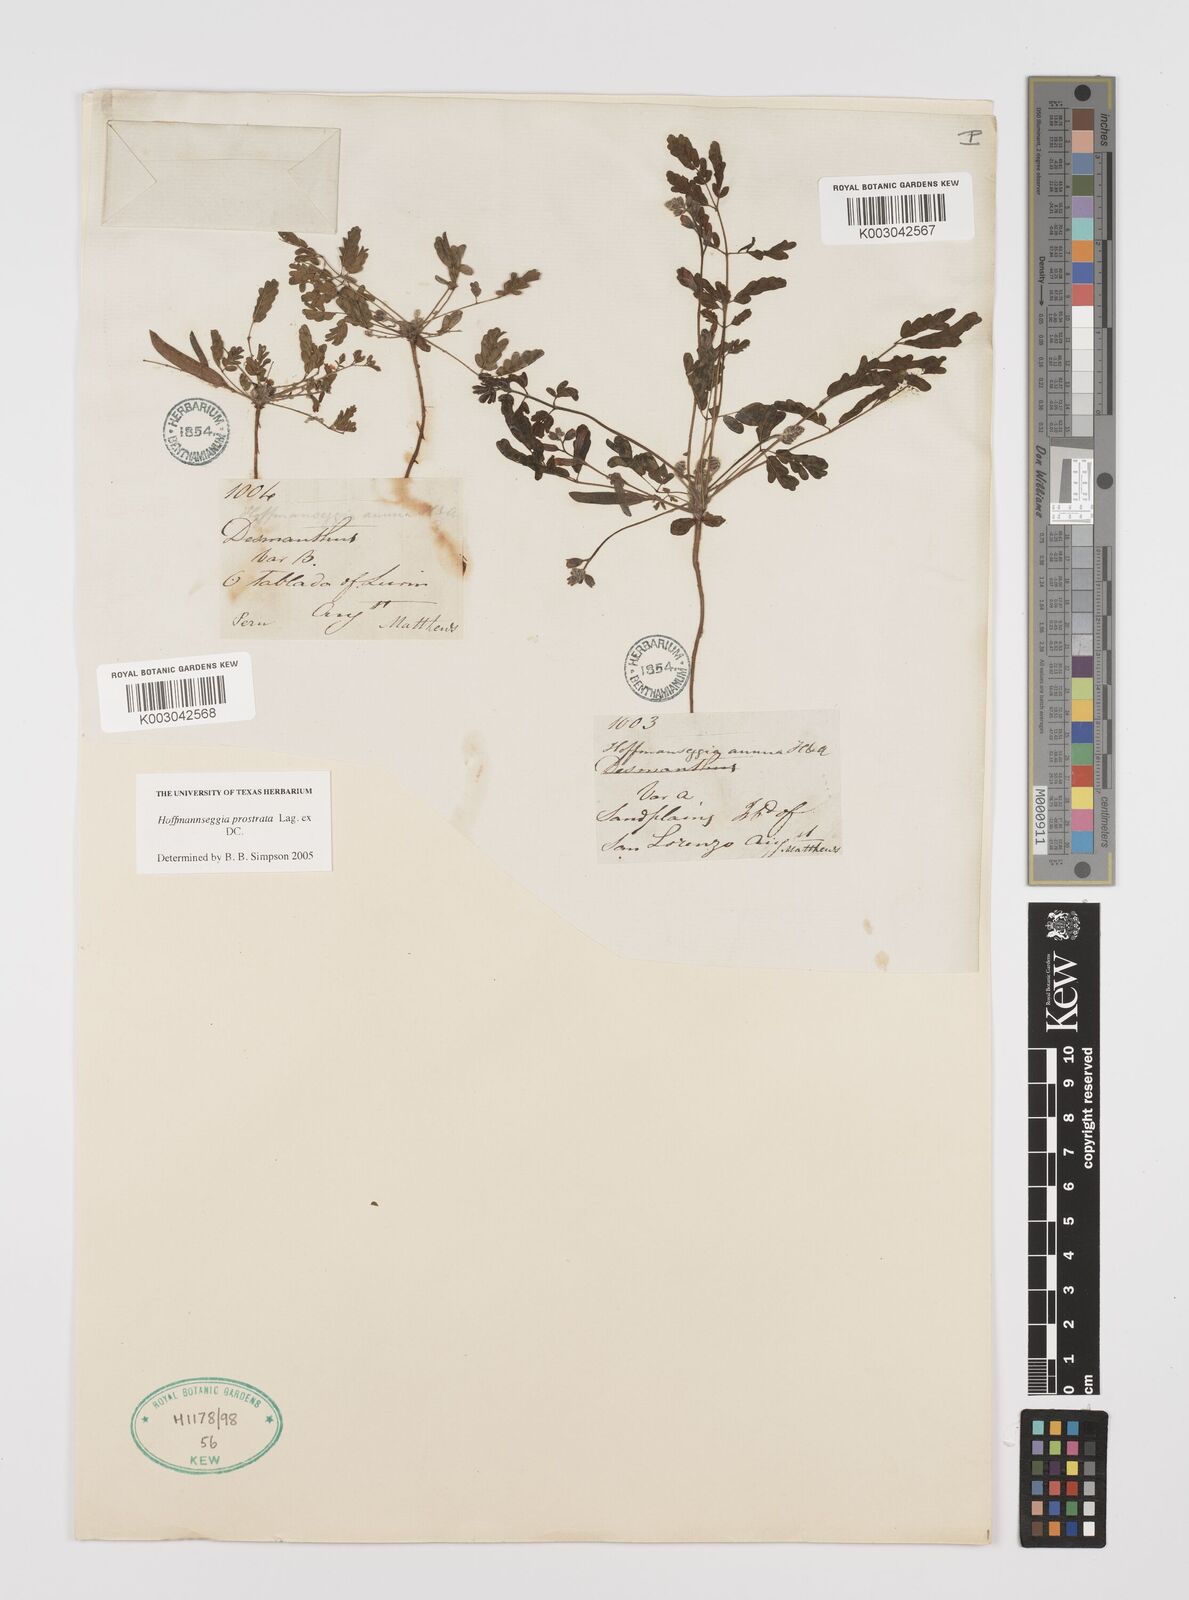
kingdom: Plantae
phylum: Tracheophyta
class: Magnoliopsida
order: Fabales
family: Fabaceae
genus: Hoffmannseggia
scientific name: Hoffmannseggia prostrata
